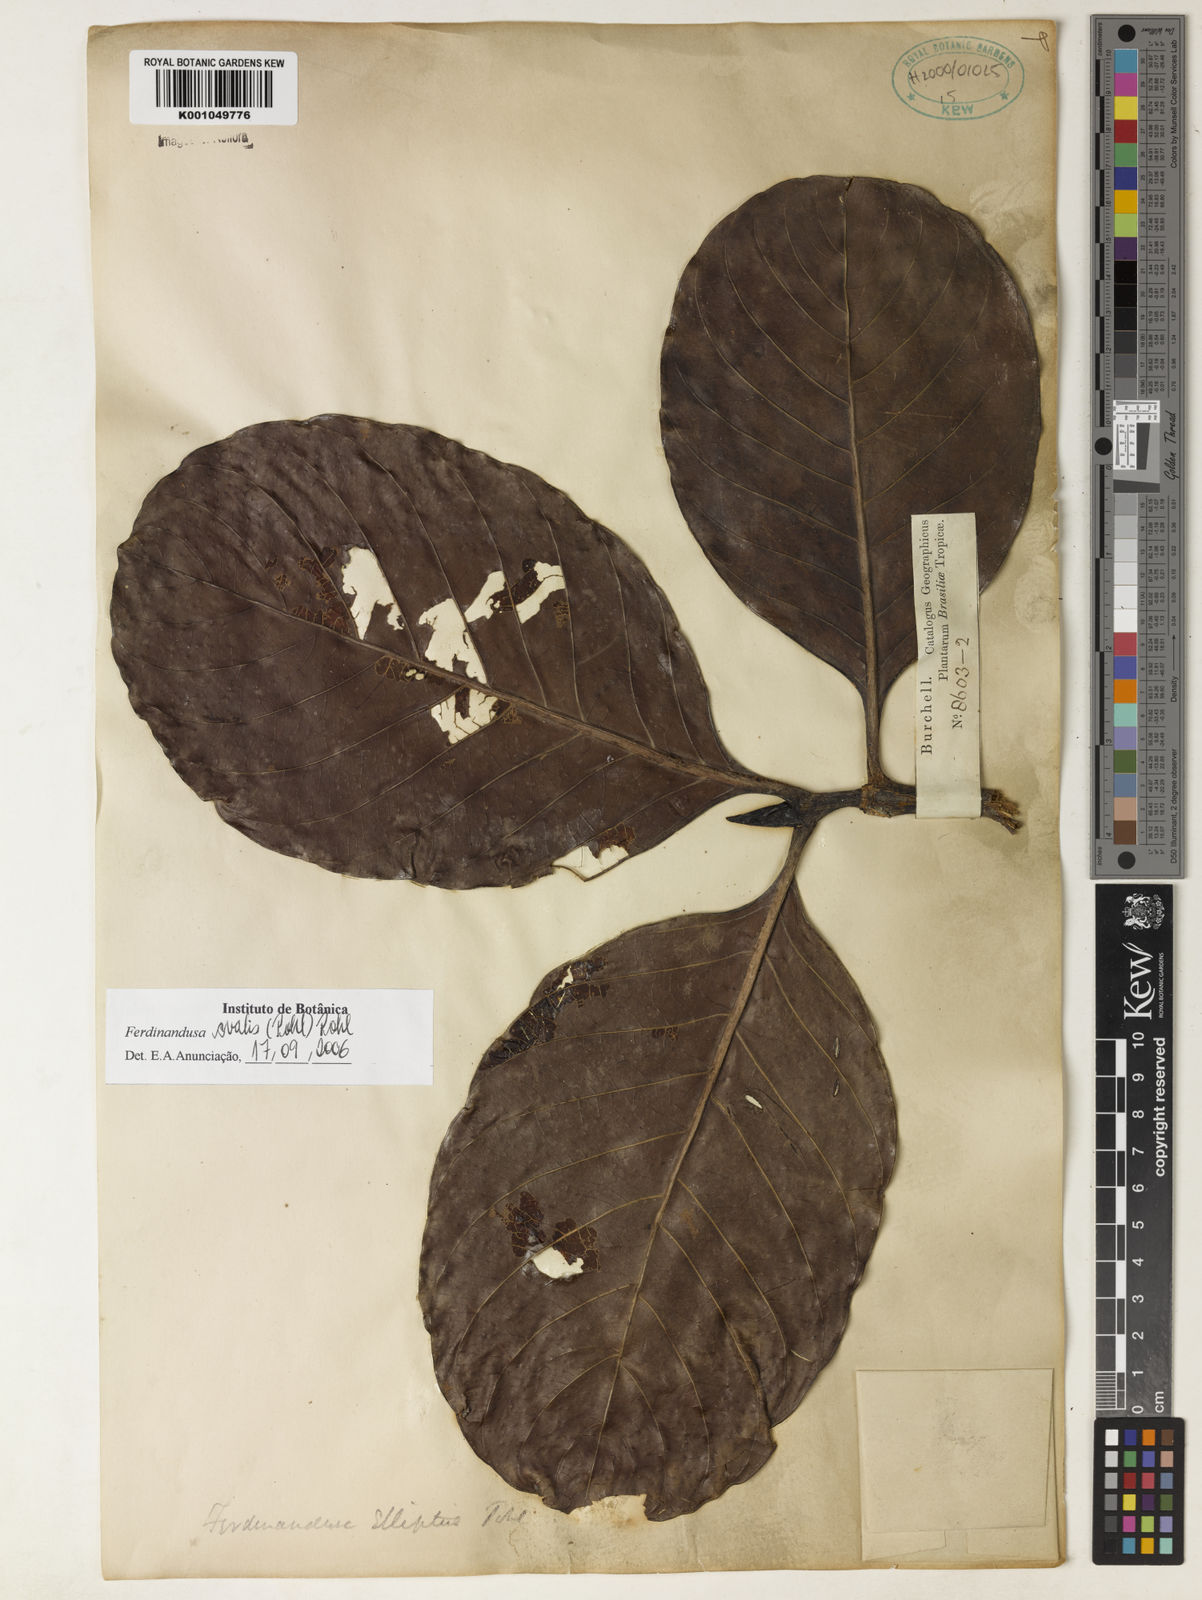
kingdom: Plantae
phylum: Tracheophyta
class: Magnoliopsida
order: Gentianales
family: Rubiaceae
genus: Ferdinandusa
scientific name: Ferdinandusa elliptica
